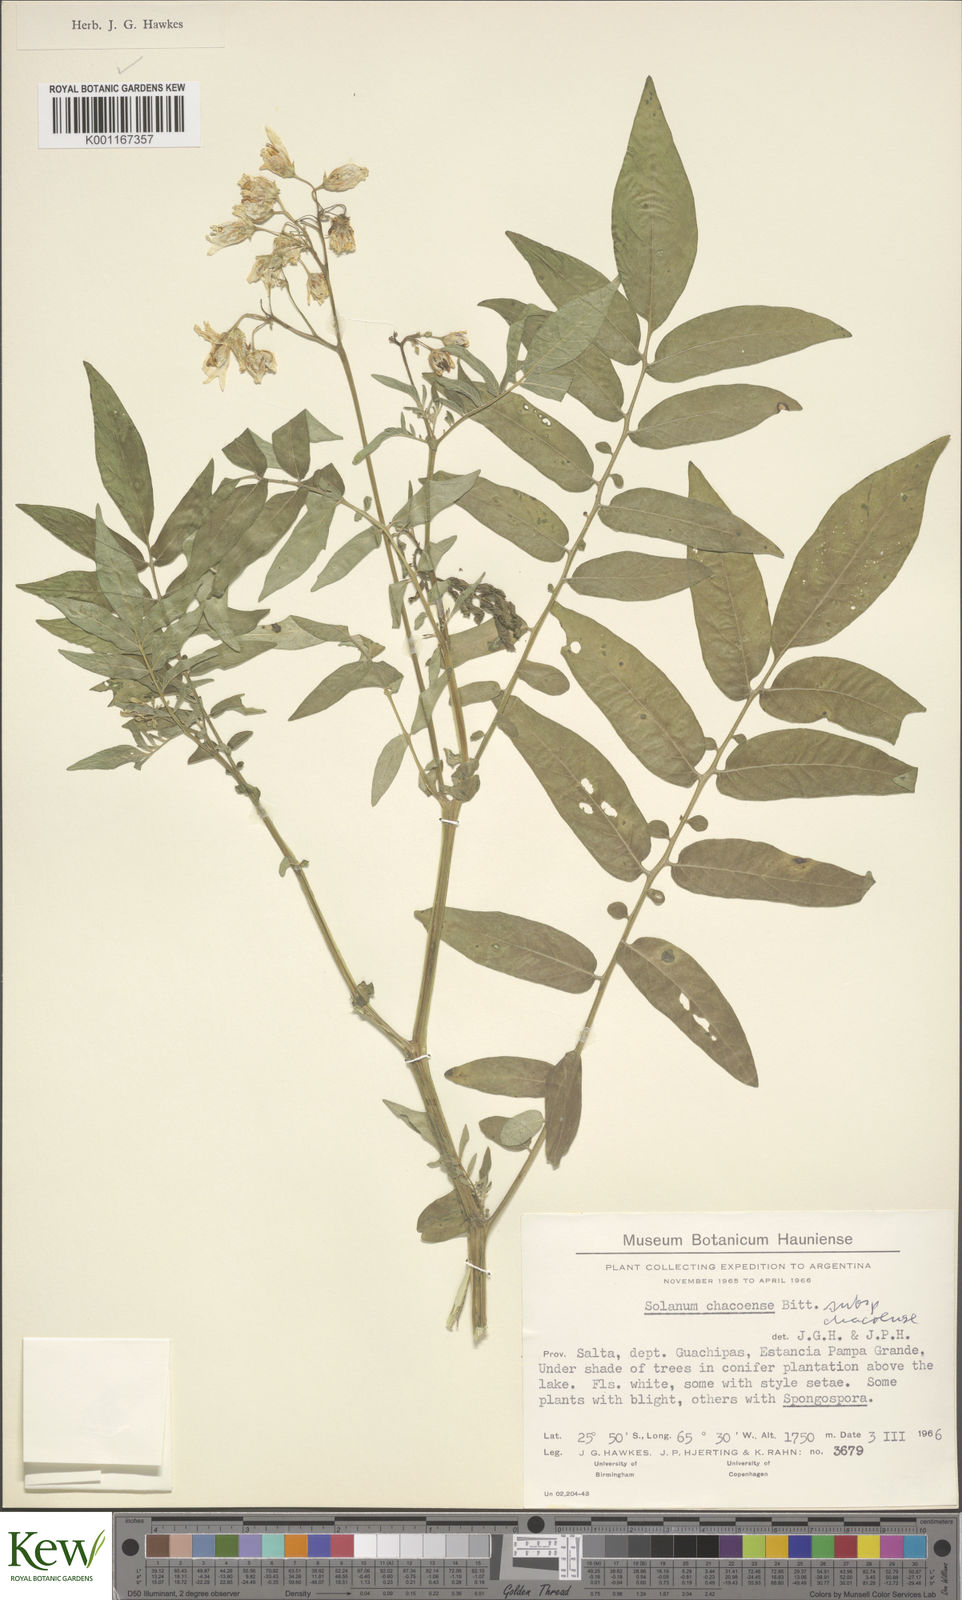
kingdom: Plantae
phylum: Tracheophyta
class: Magnoliopsida
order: Solanales
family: Solanaceae
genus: Solanum
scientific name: Solanum chacoense
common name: Chaco potato
